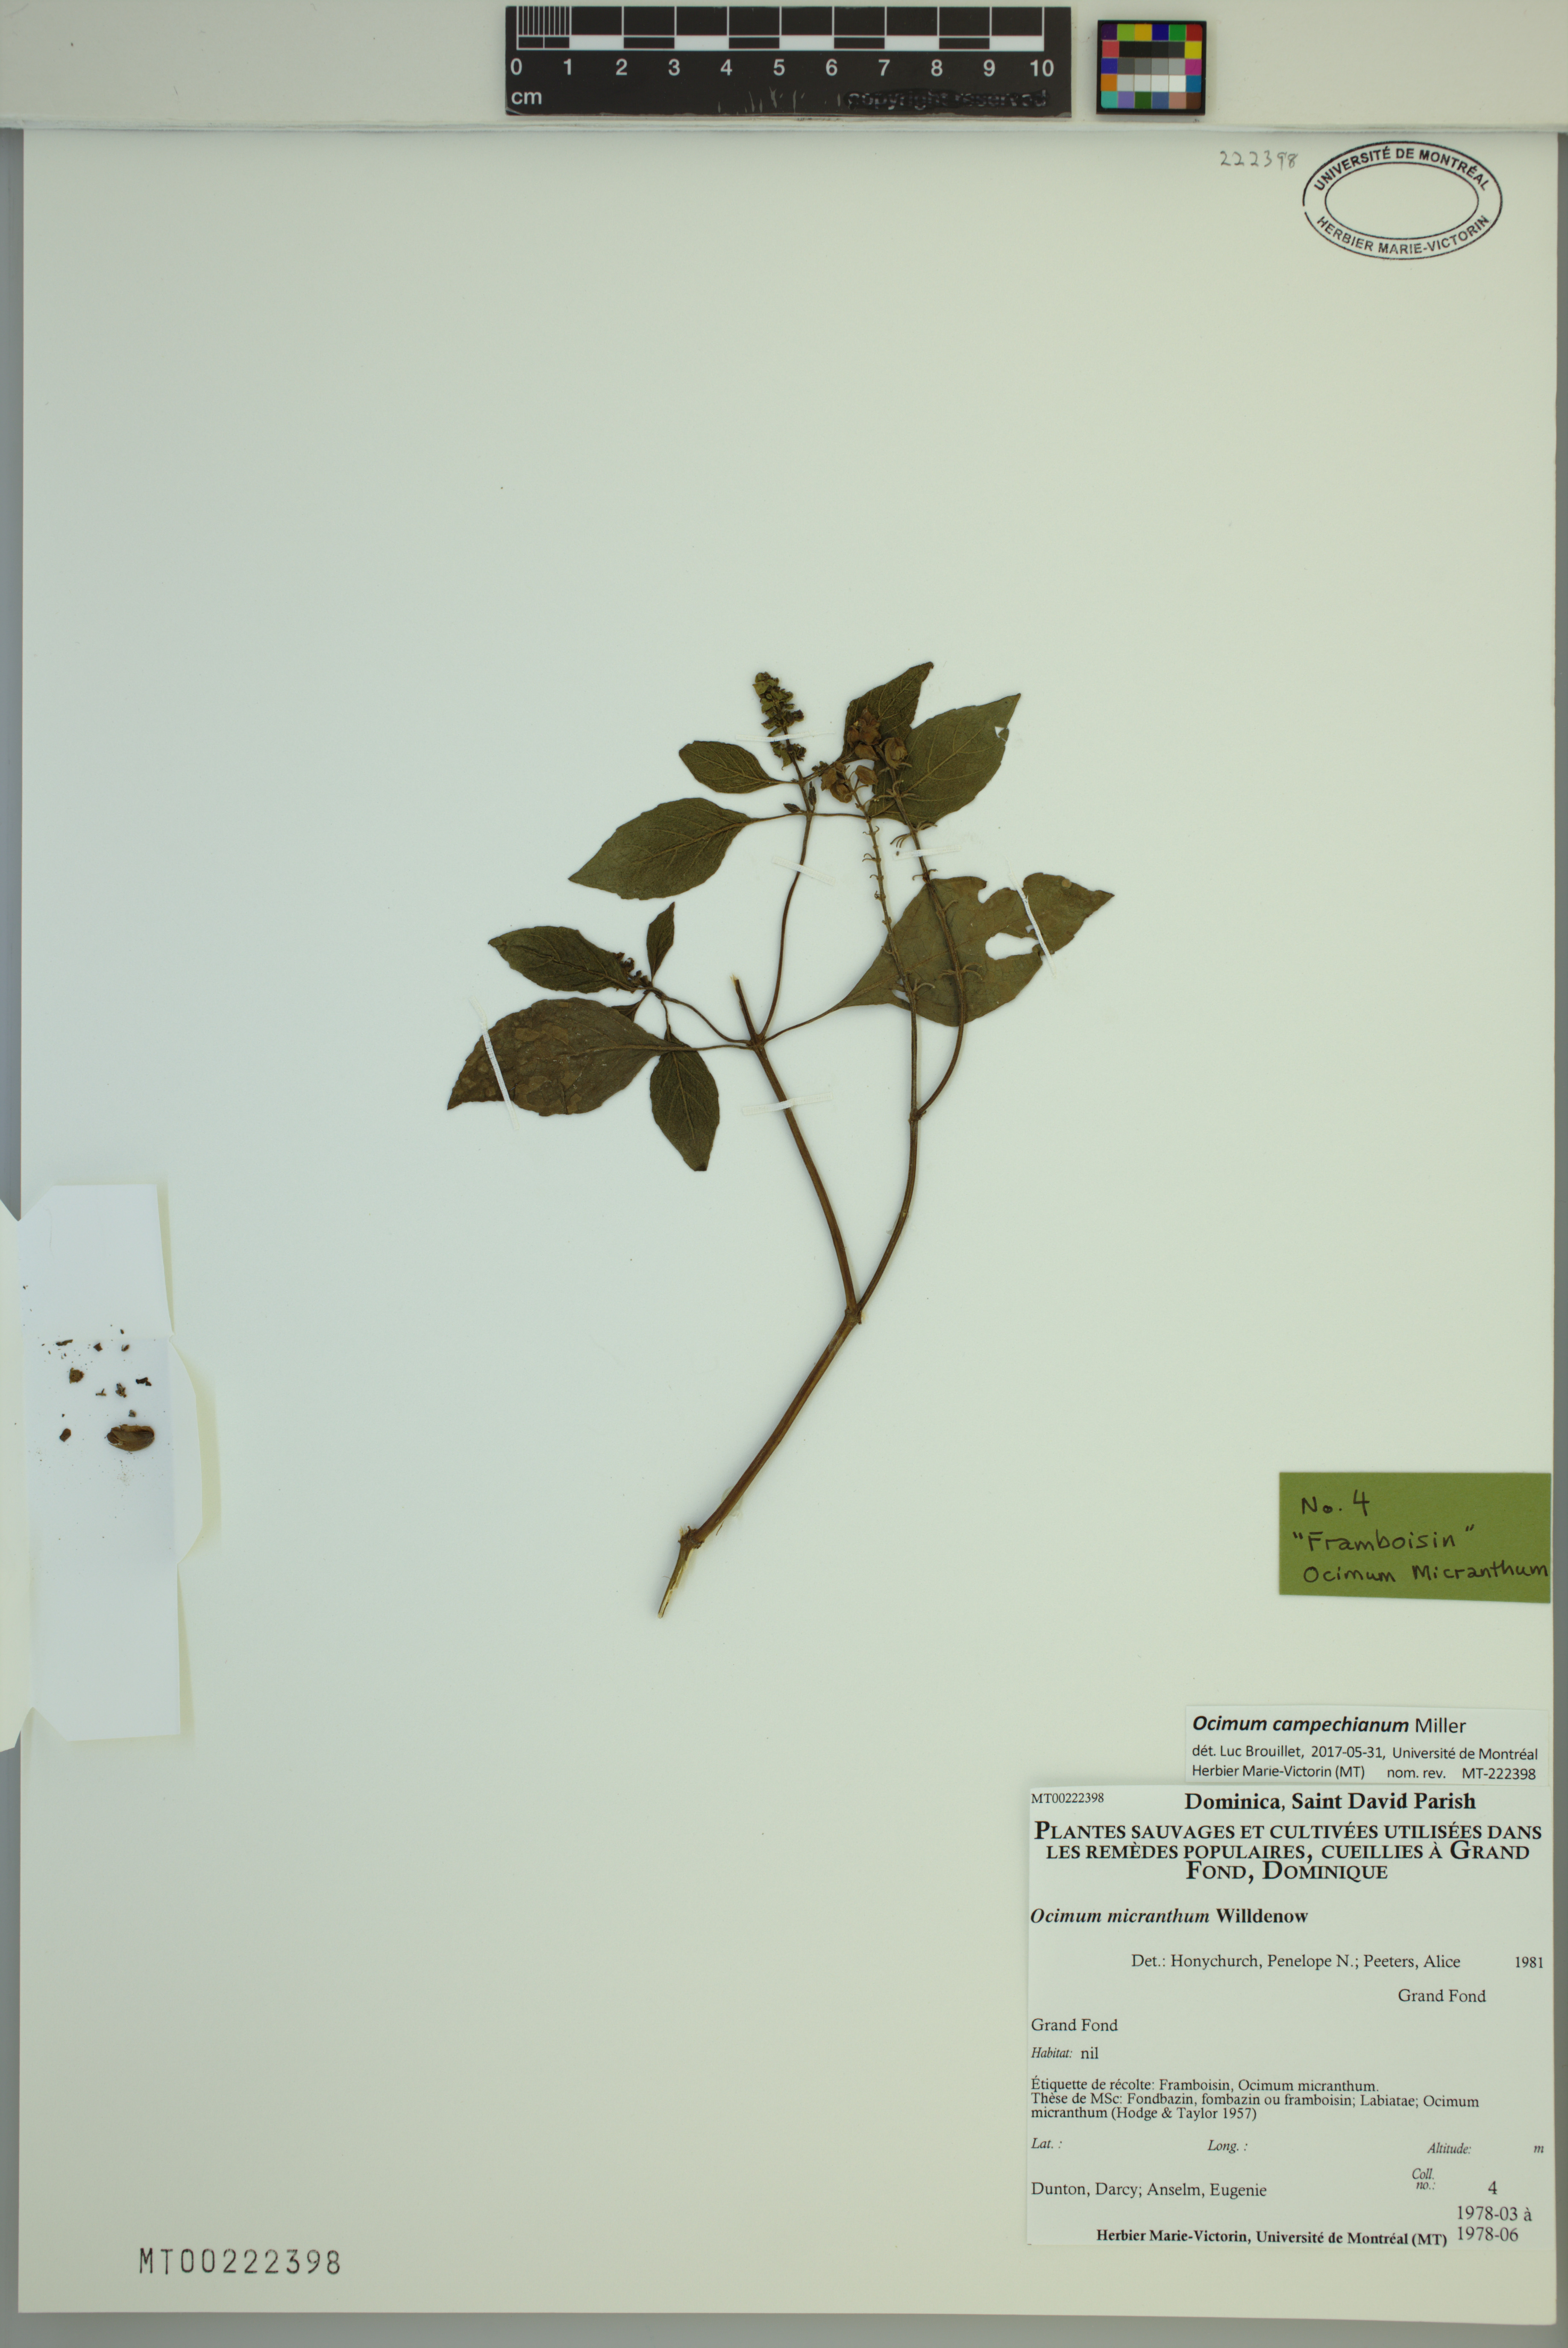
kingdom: Plantae
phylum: Tracheophyta
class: Magnoliopsida
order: Lamiales
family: Lamiaceae
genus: Ocimum
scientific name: Ocimum campechianum
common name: Mosquito basil
